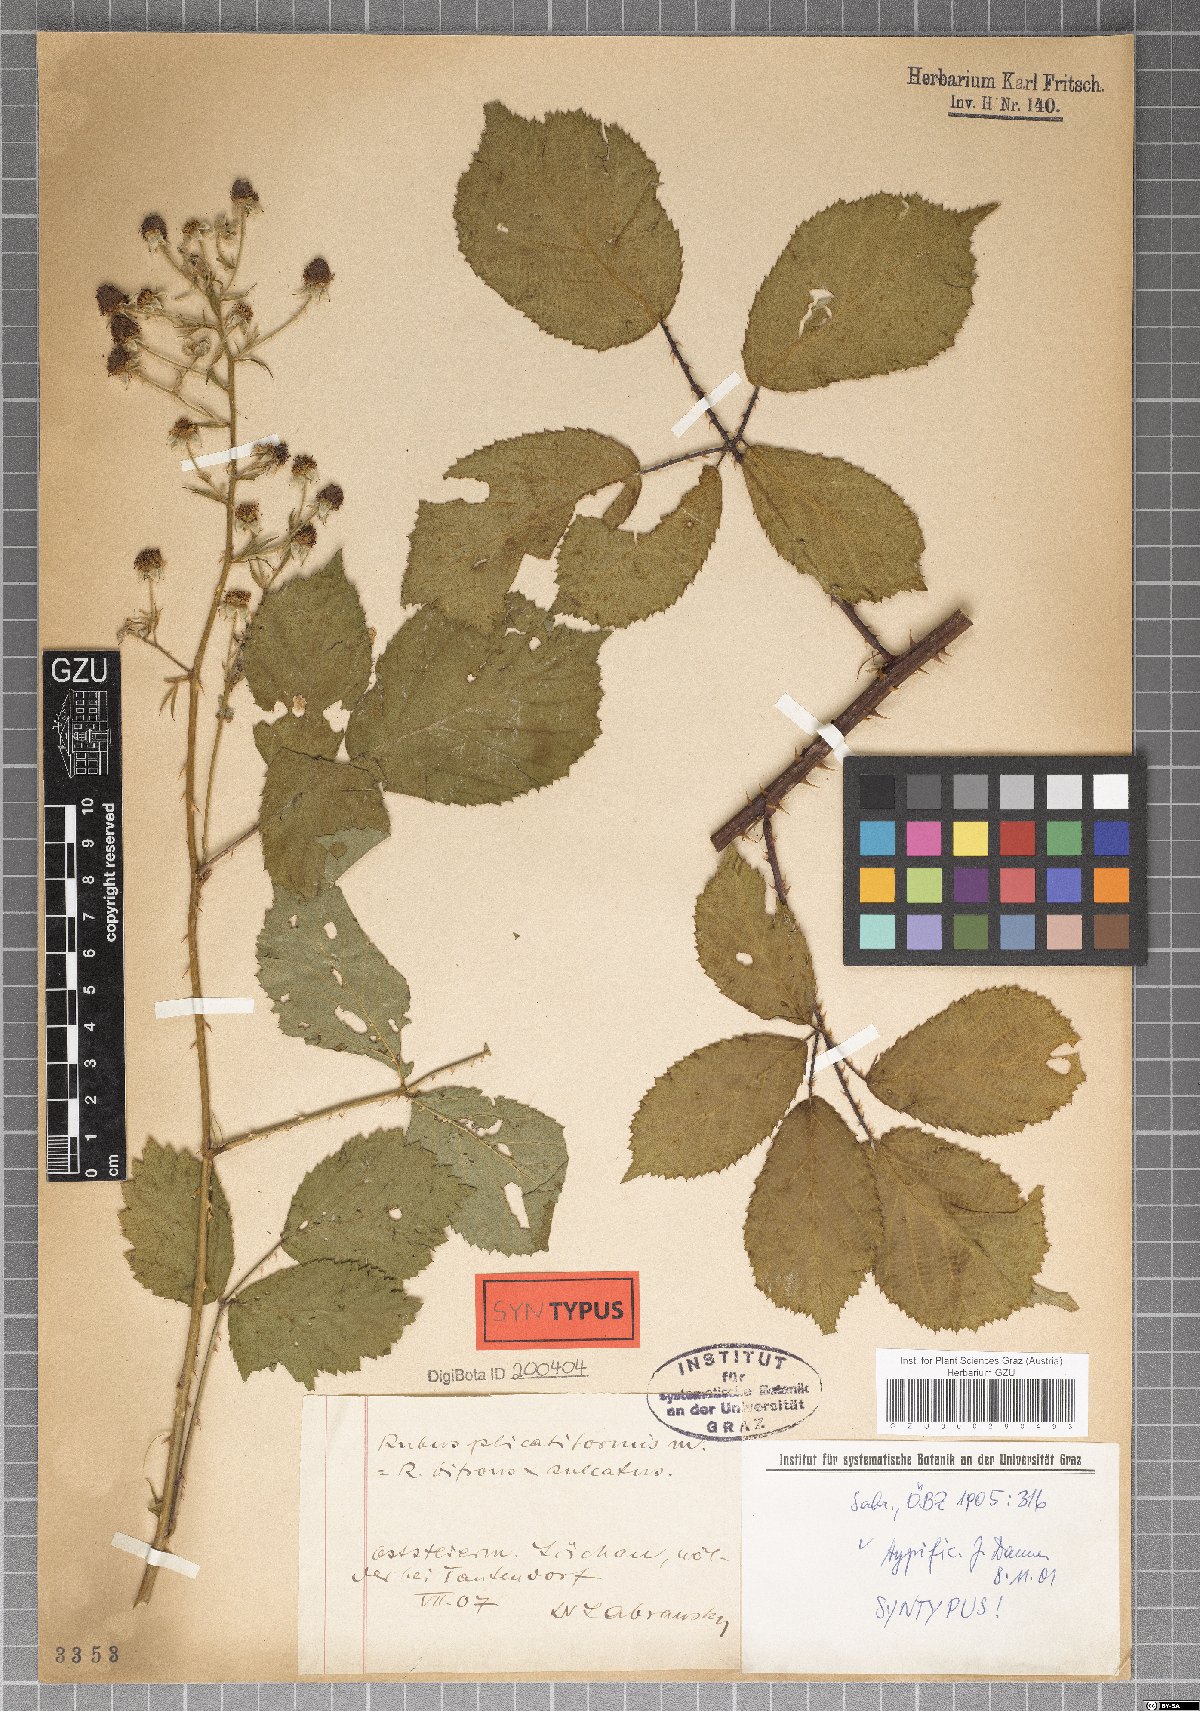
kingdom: Plantae
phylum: Tracheophyta
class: Magnoliopsida
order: Rosales
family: Rosaceae
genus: Rubus
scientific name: Rubus plicatiformis
